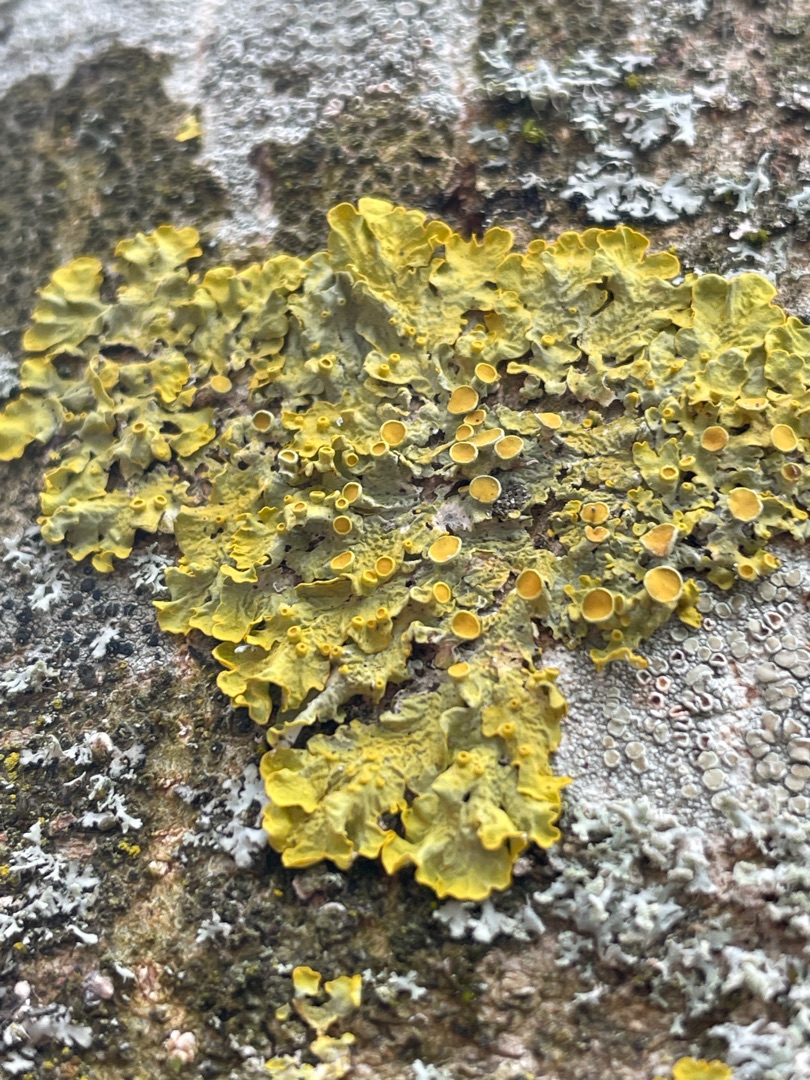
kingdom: Fungi
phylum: Ascomycota
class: Lecanoromycetes
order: Teloschistales
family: Teloschistaceae
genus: Xanthoria
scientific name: Xanthoria parietina
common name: Almindelig væggelav
